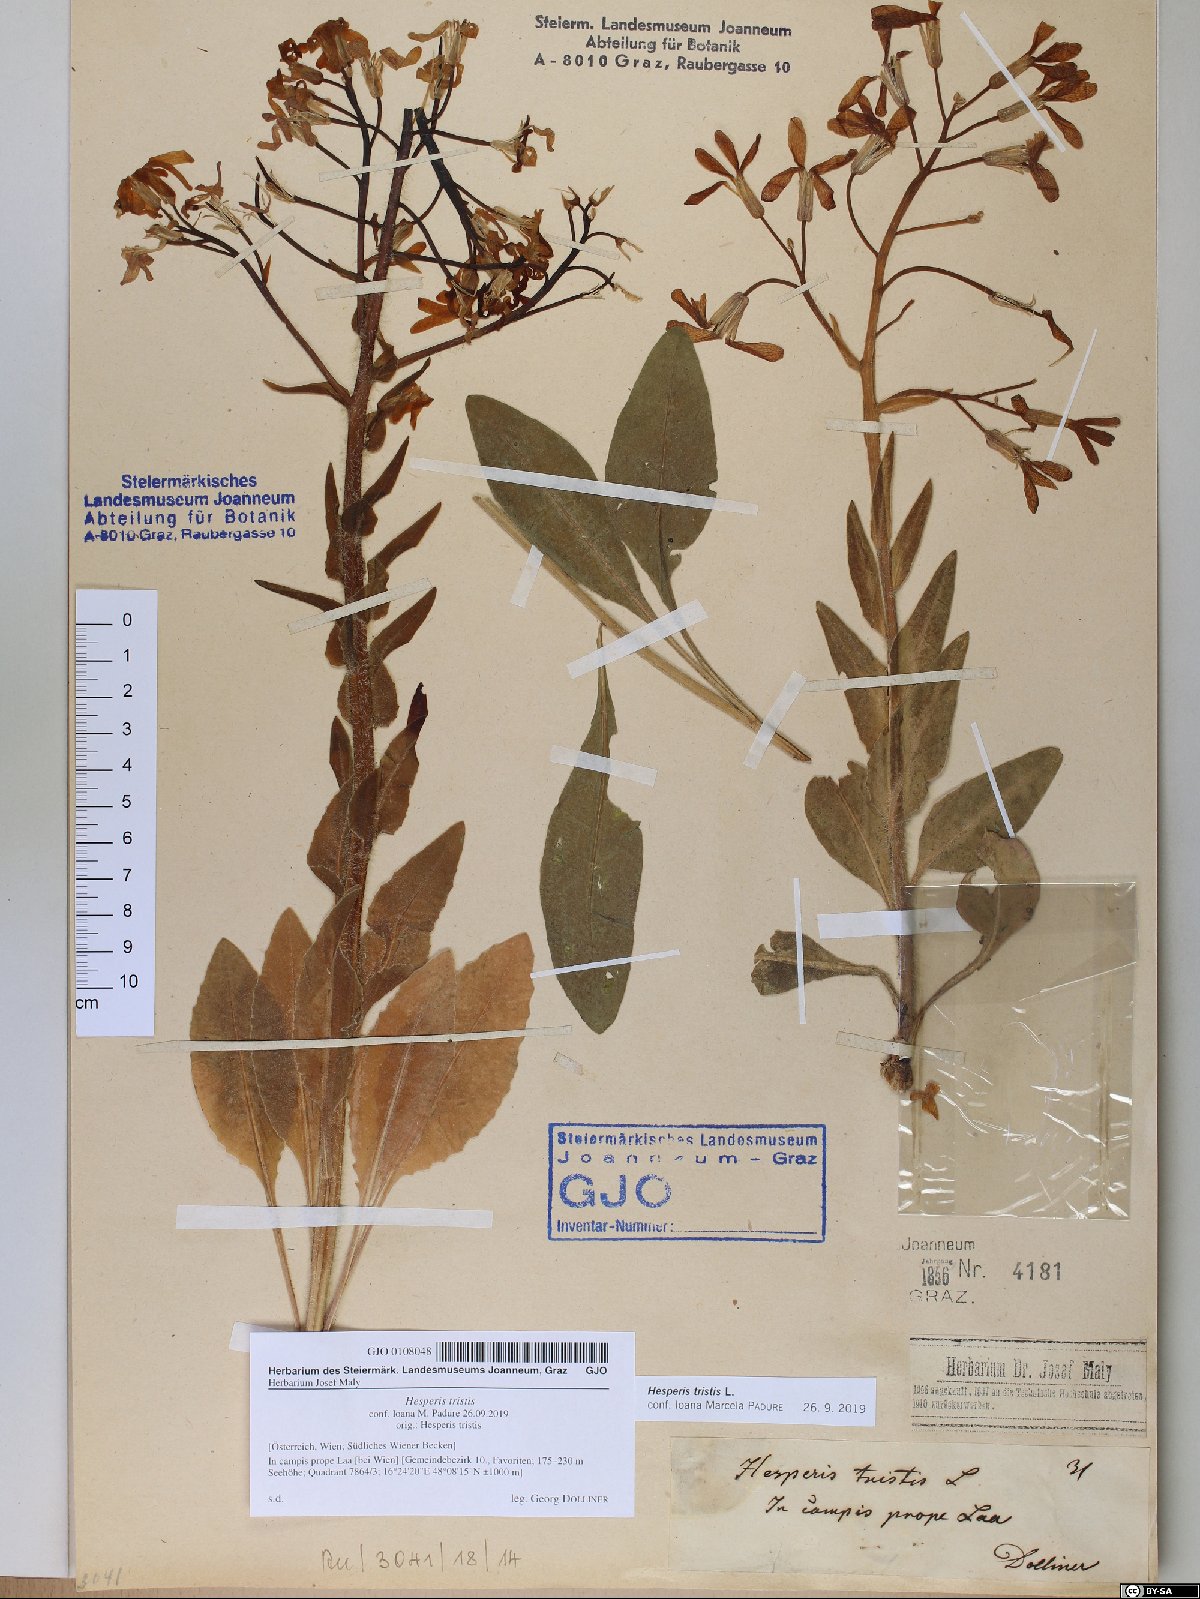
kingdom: Plantae
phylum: Tracheophyta
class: Magnoliopsida
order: Brassicales
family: Brassicaceae
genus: Hesperis
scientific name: Hesperis tristis
